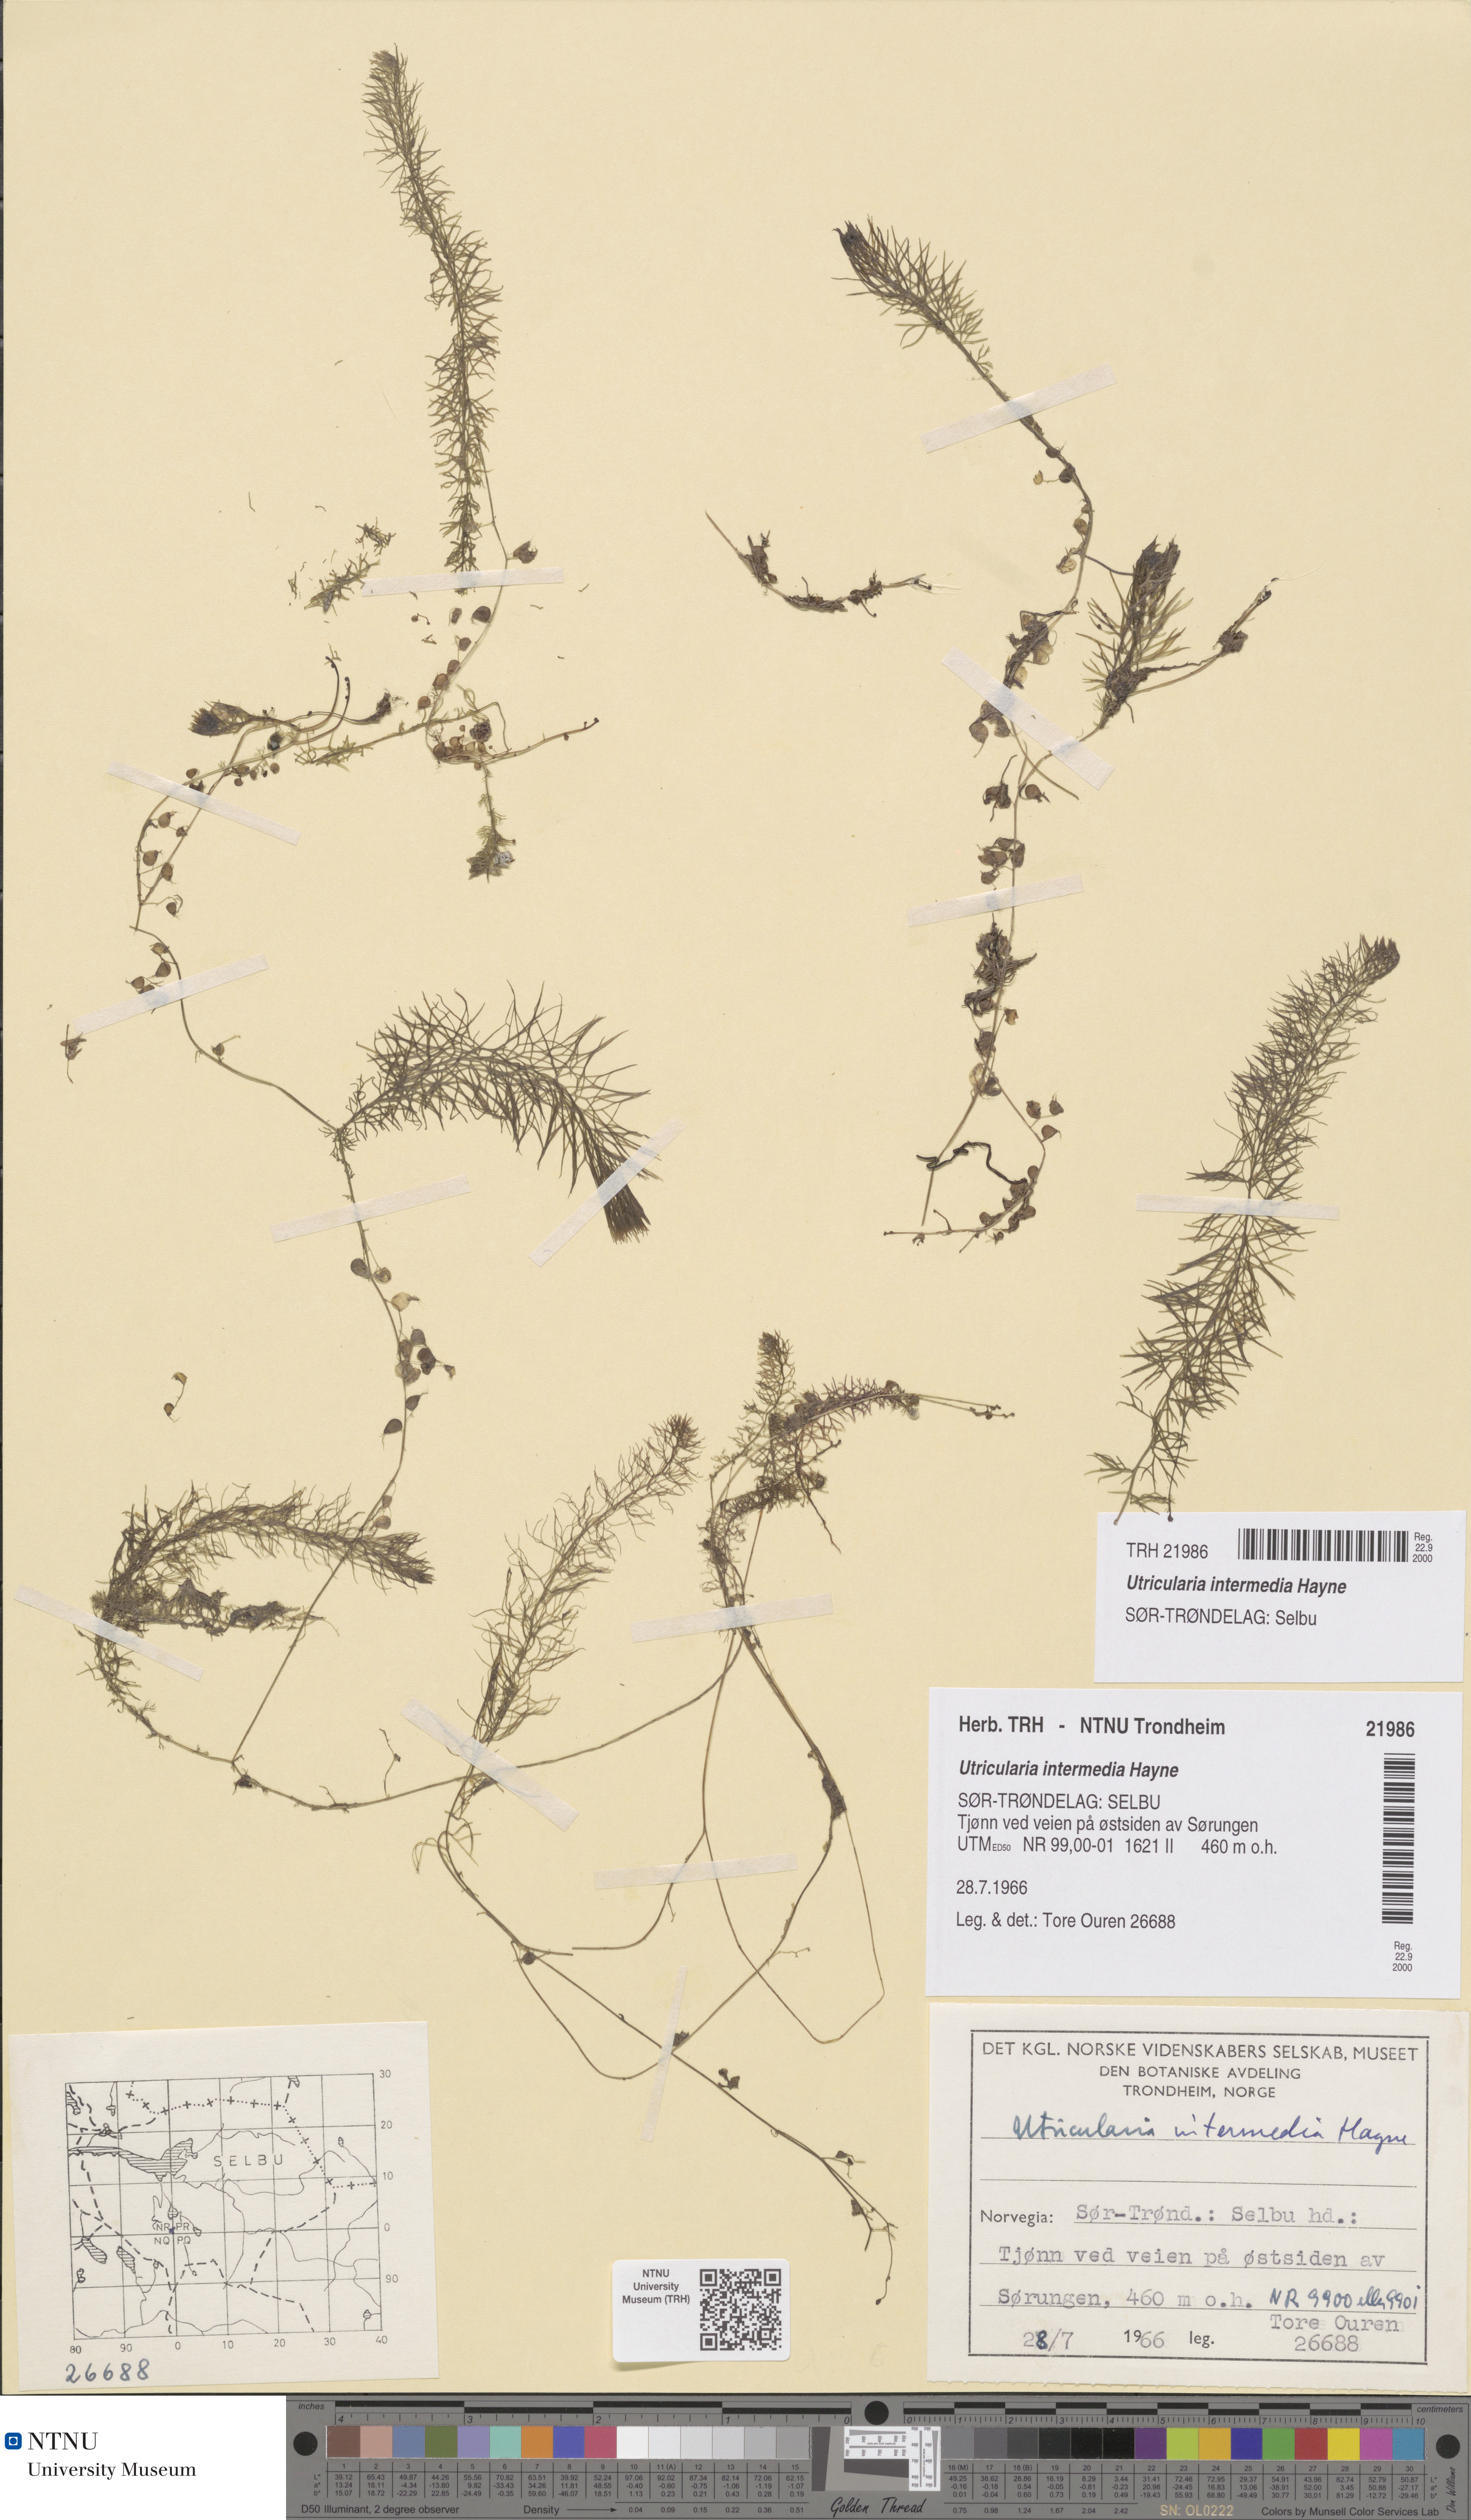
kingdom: Plantae
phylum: Tracheophyta
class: Magnoliopsida
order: Lamiales
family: Lentibulariaceae
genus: Utricularia
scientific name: Utricularia intermedia
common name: Intermediate bladderwort
